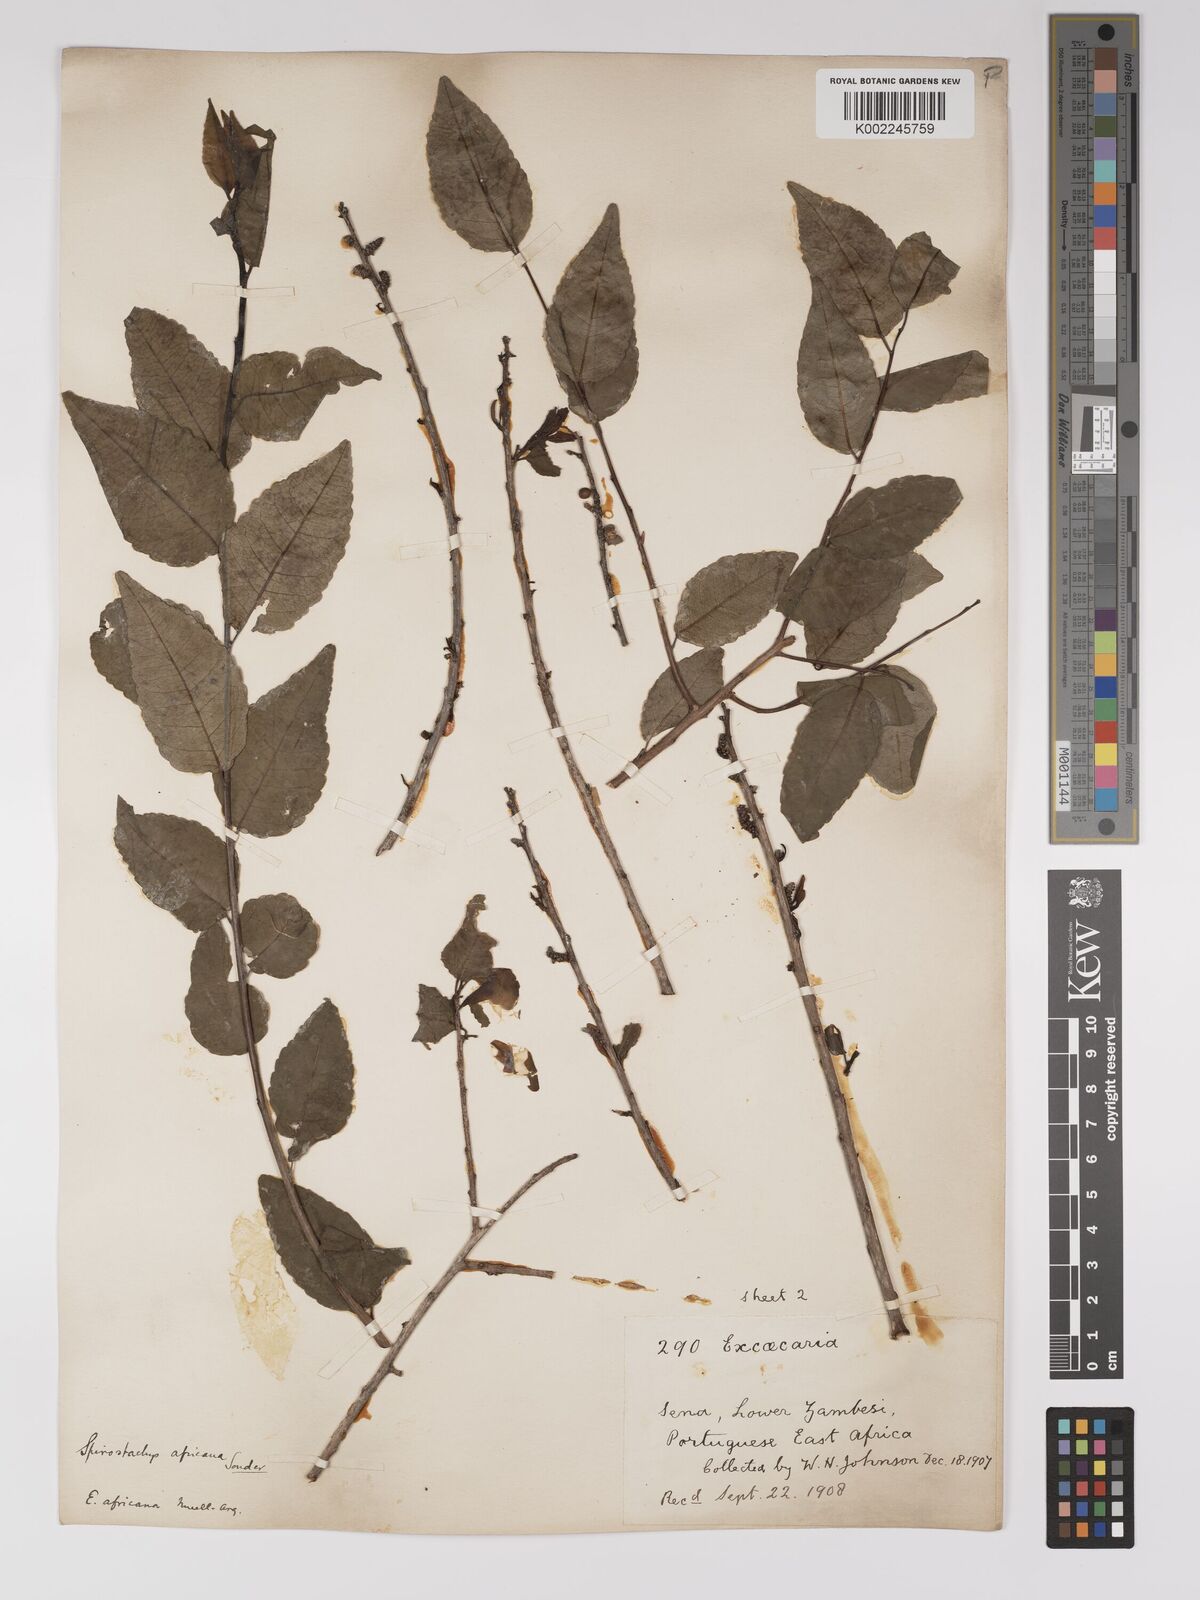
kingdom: Plantae
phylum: Tracheophyta
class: Magnoliopsida
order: Malpighiales
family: Euphorbiaceae
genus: Spirostachys
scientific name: Spirostachys africana
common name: Tamboti
